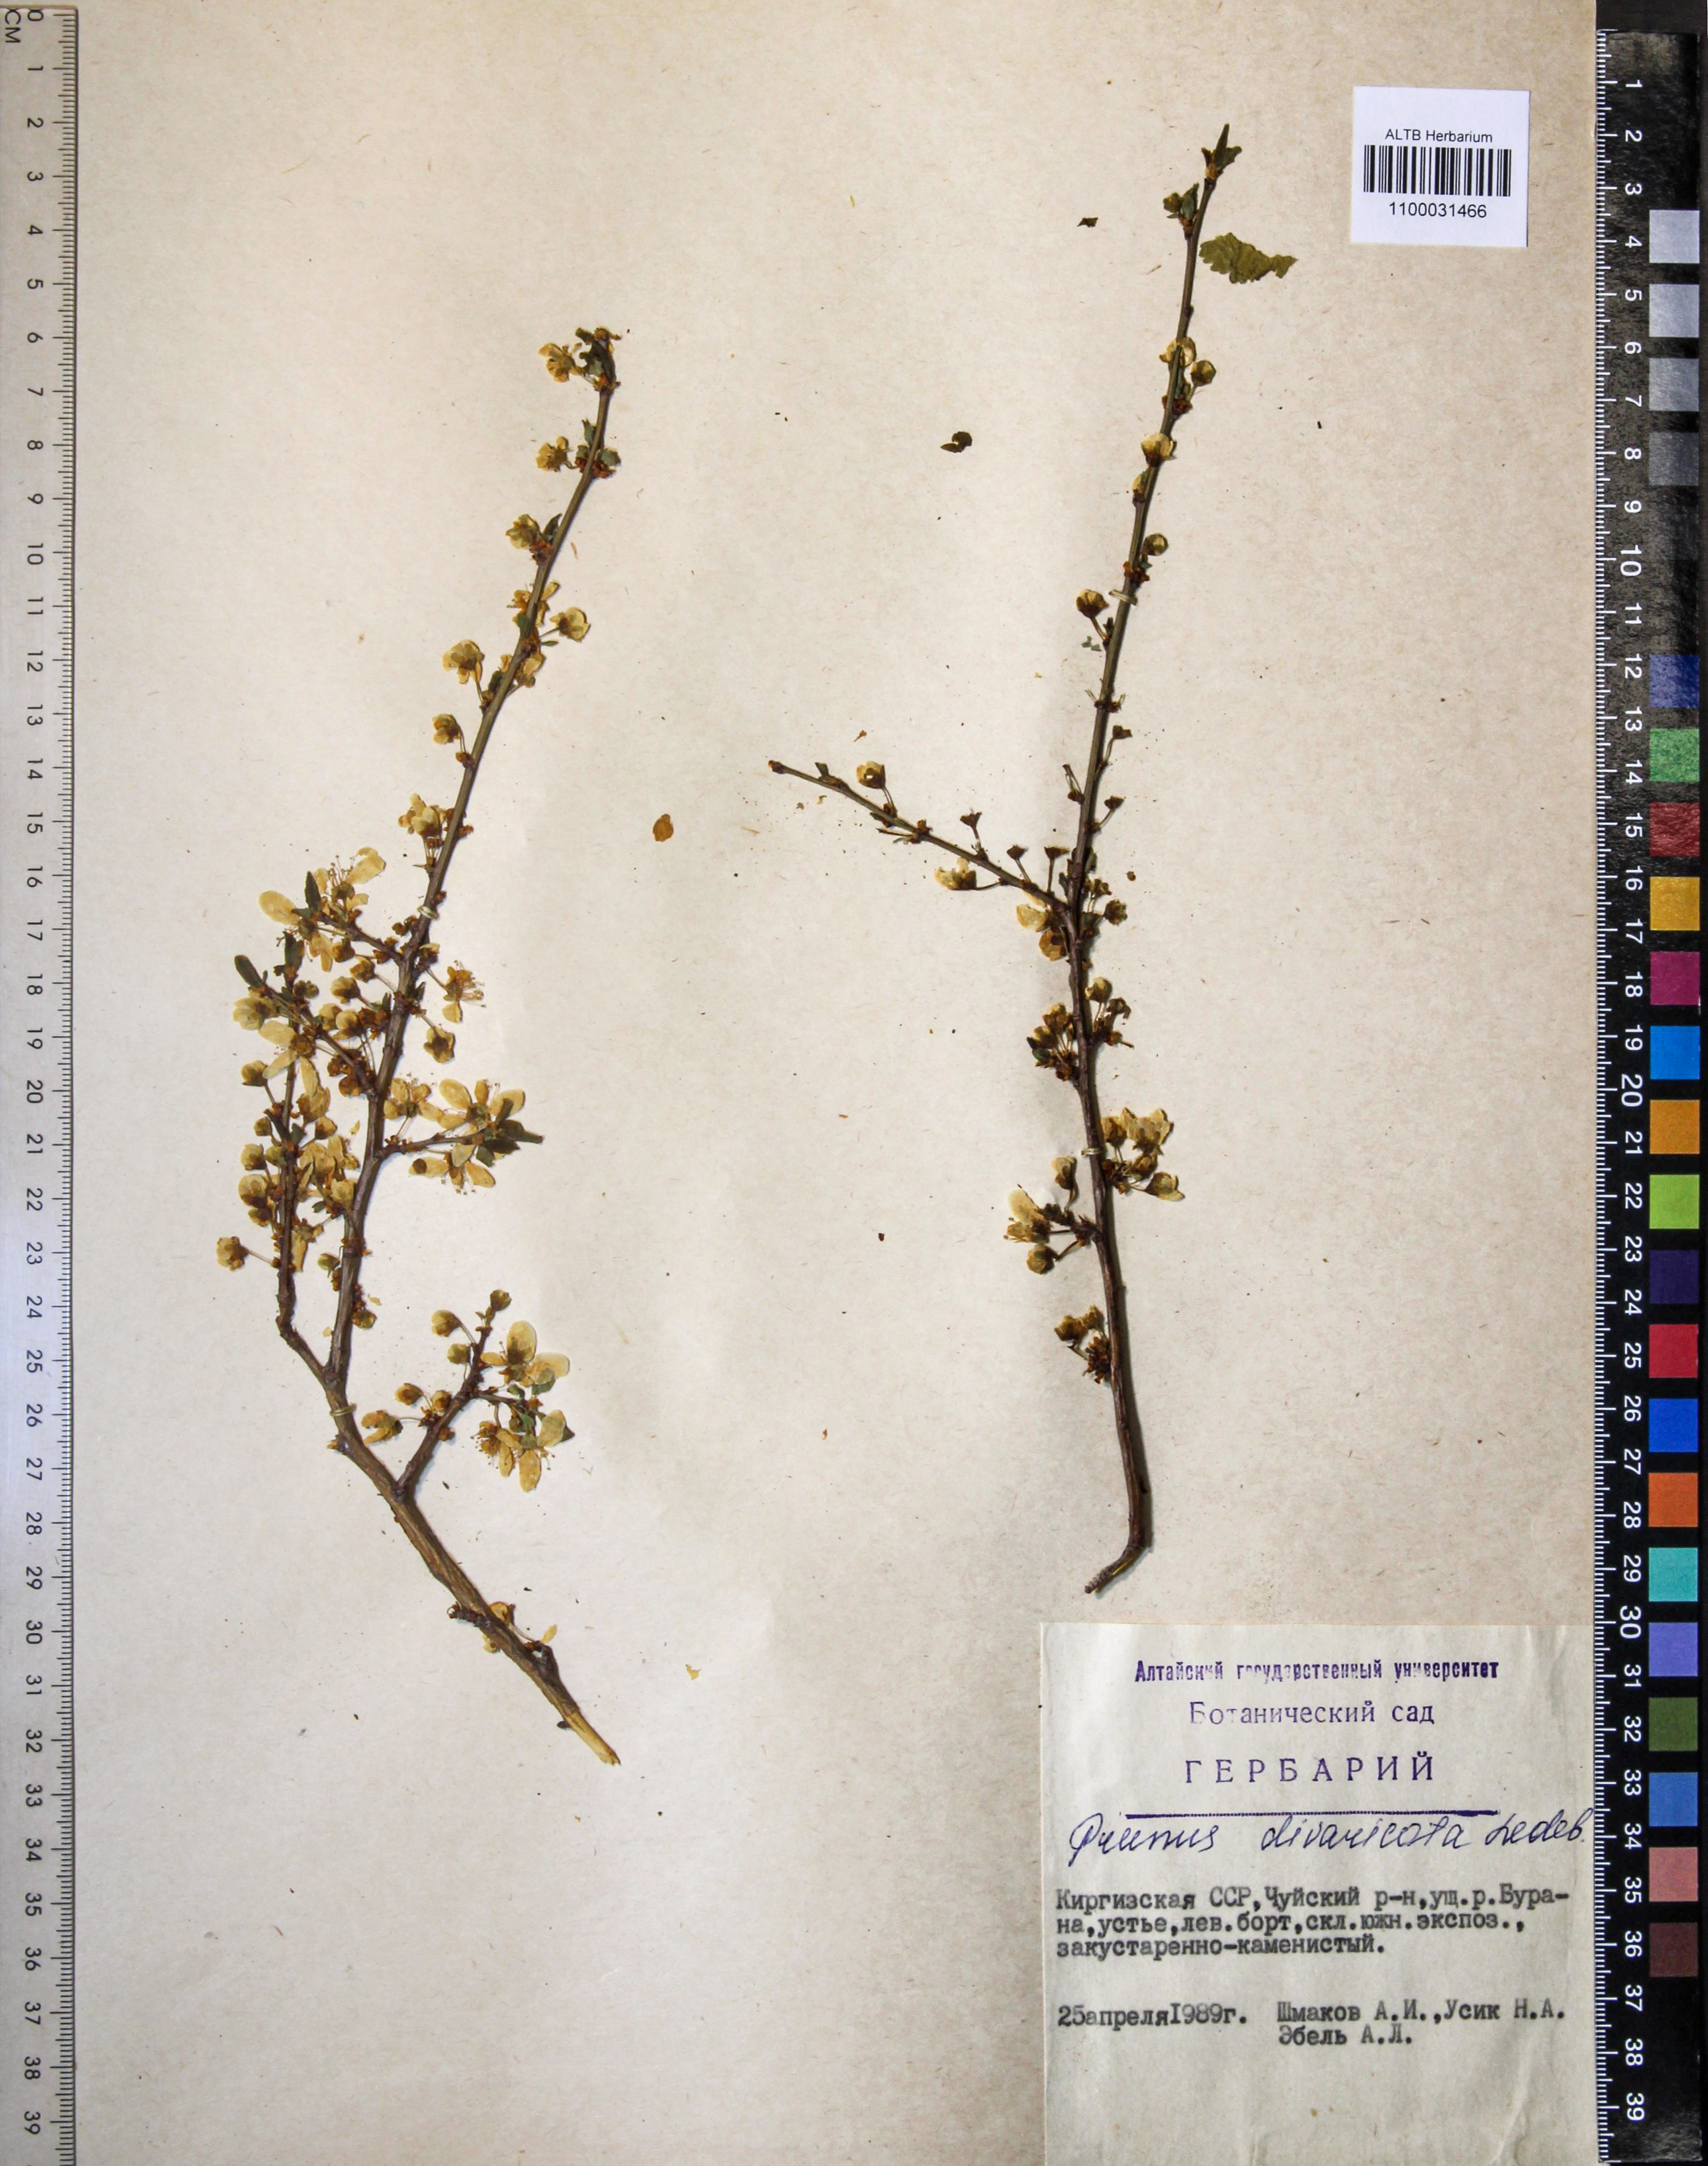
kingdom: Plantae
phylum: Tracheophyta
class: Magnoliopsida
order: Rosales
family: Rosaceae
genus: Prunus
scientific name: Prunus cerasifera
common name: Cherry plum
